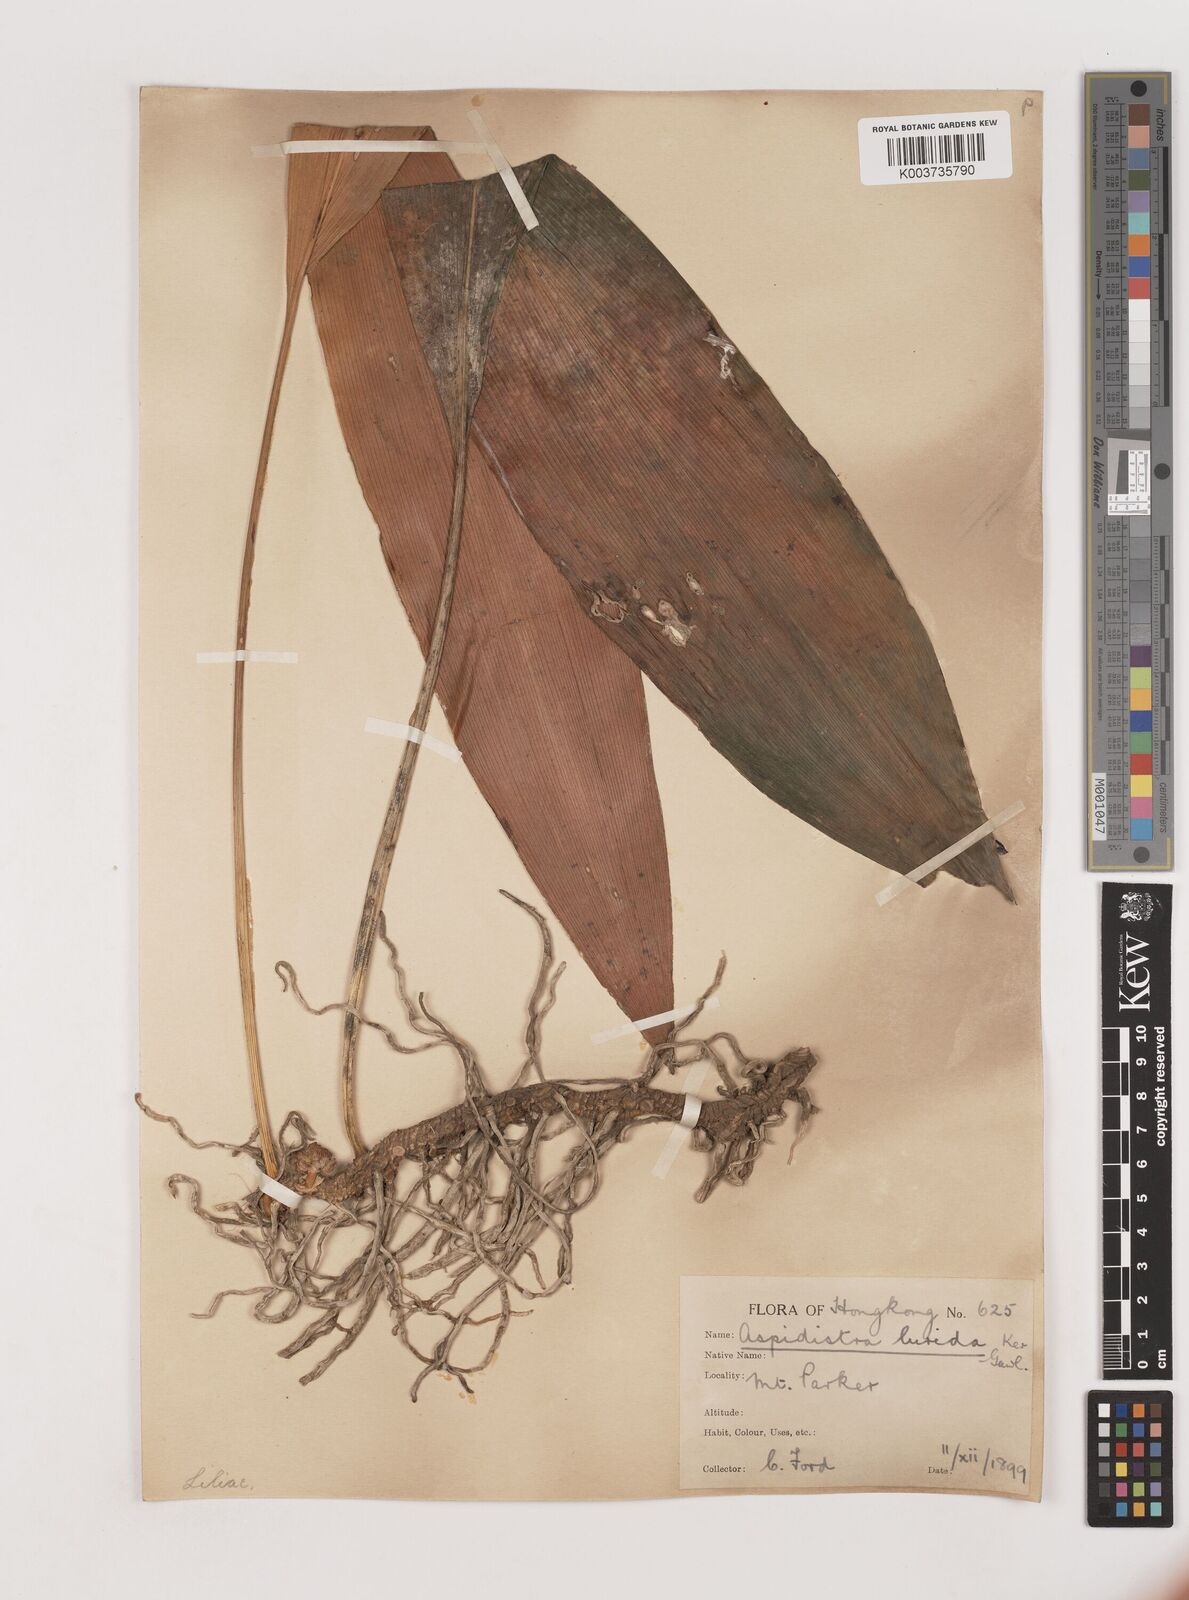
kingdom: Plantae
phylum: Tracheophyta
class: Liliopsida
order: Asparagales
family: Asparagaceae
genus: Aspidistra
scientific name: Aspidistra lurida
